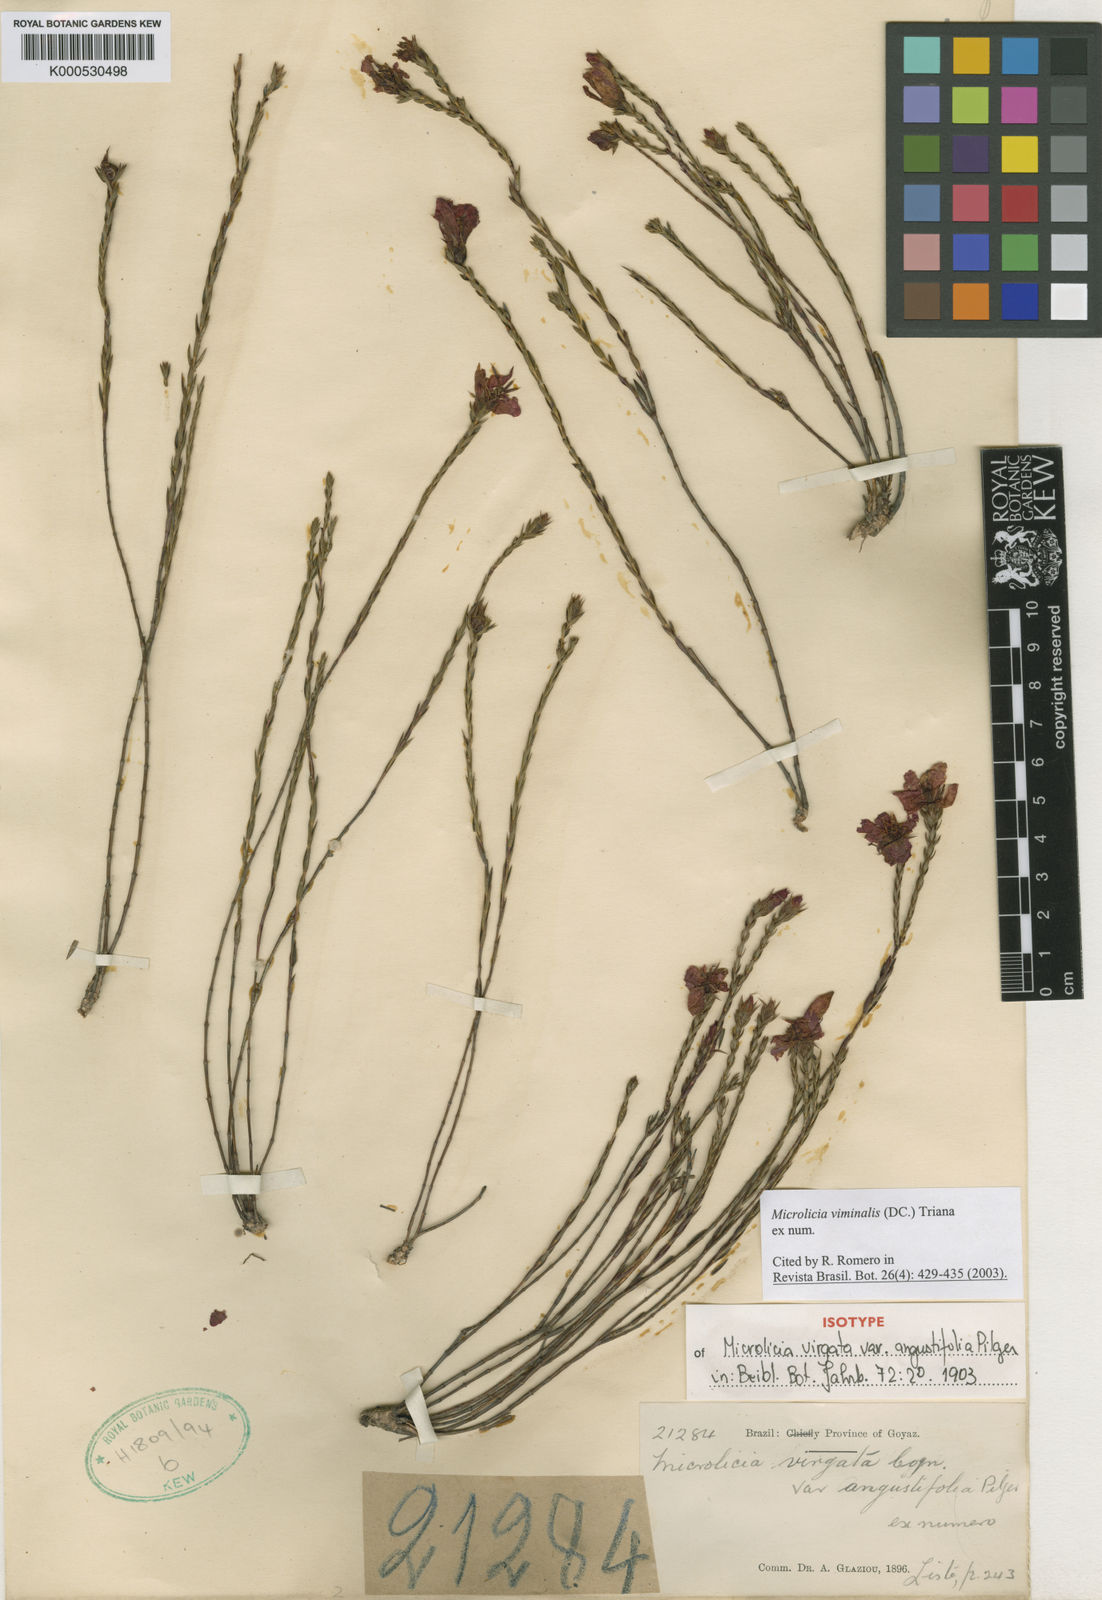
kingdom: Plantae
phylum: Tracheophyta
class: Magnoliopsida
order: Myrtales
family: Melastomataceae
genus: Microlicia
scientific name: Microlicia viminalis
